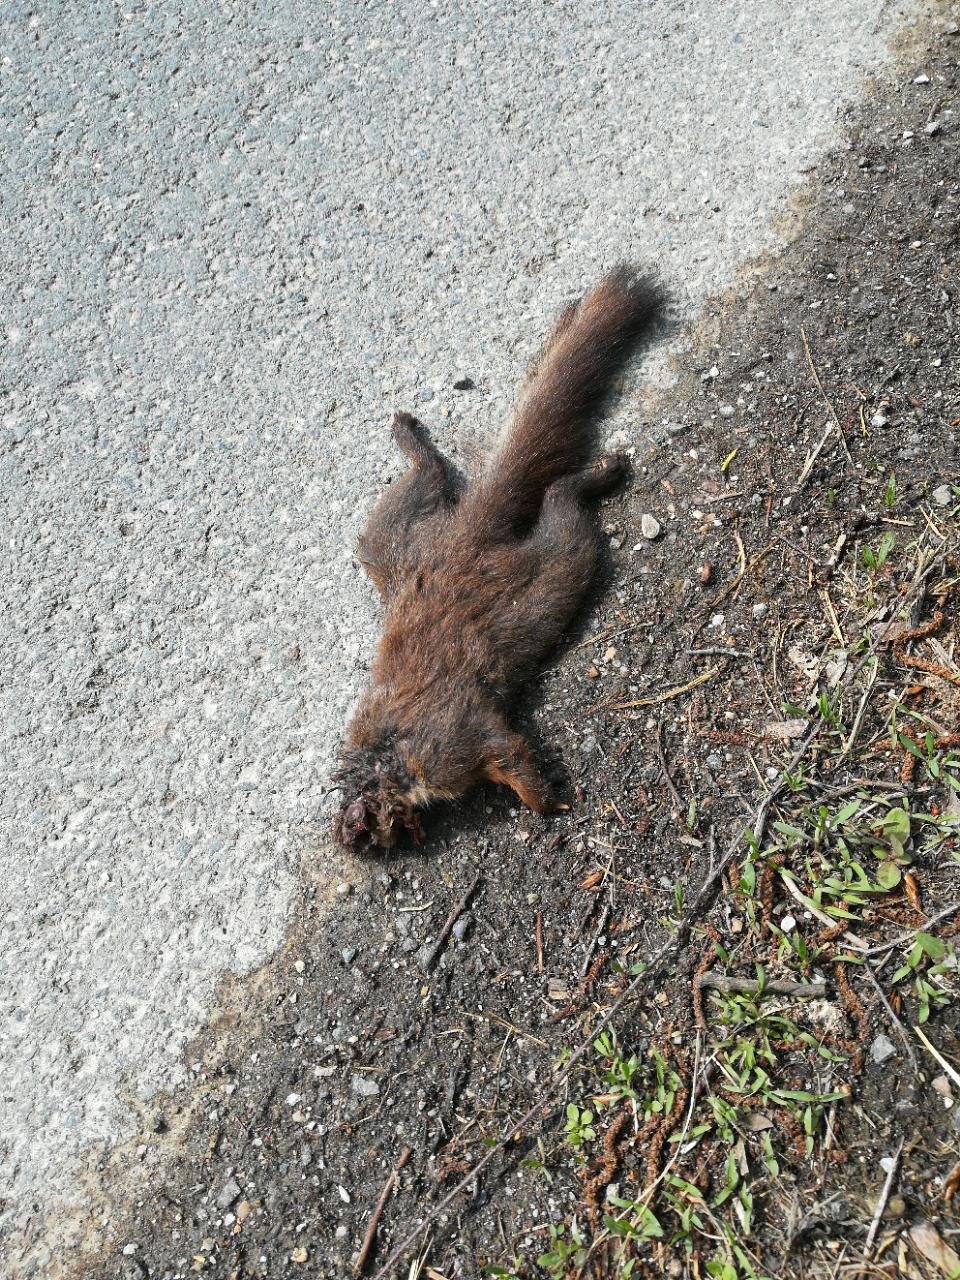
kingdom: Animalia
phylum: Chordata
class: Mammalia
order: Rodentia
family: Sciuridae
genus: Sciurus
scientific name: Sciurus vulgaris
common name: Eurasian red squirrel
